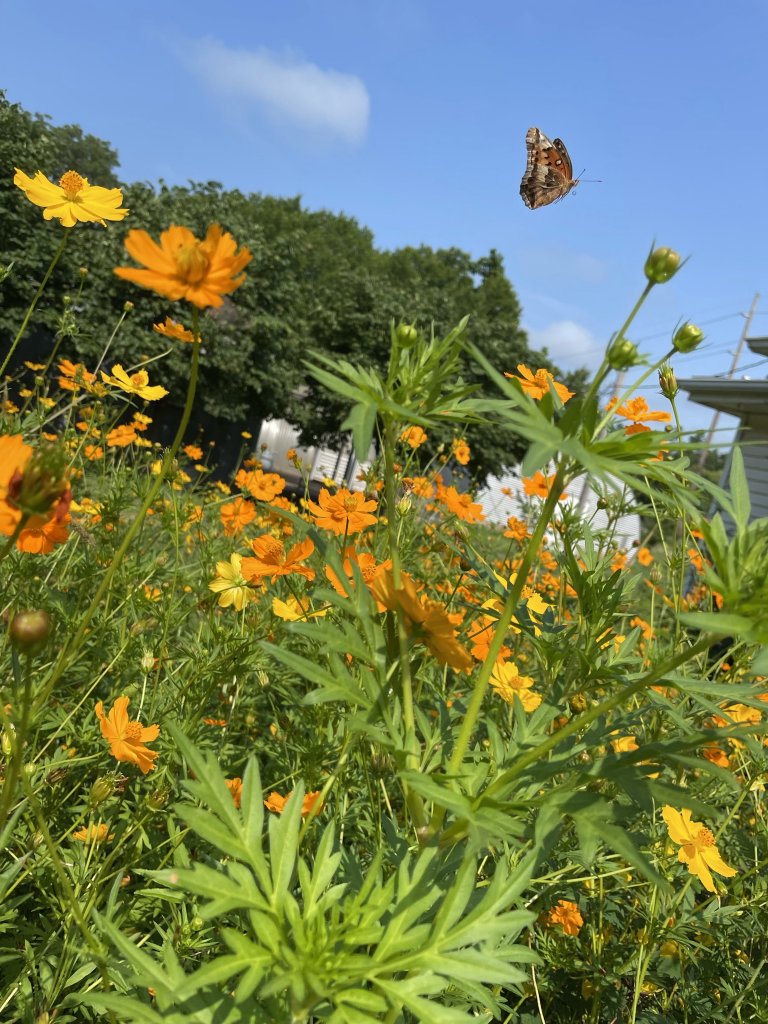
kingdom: Animalia
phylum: Arthropoda
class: Insecta
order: Lepidoptera
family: Nymphalidae
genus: Euptoieta
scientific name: Euptoieta claudia
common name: Variegated Fritillary
